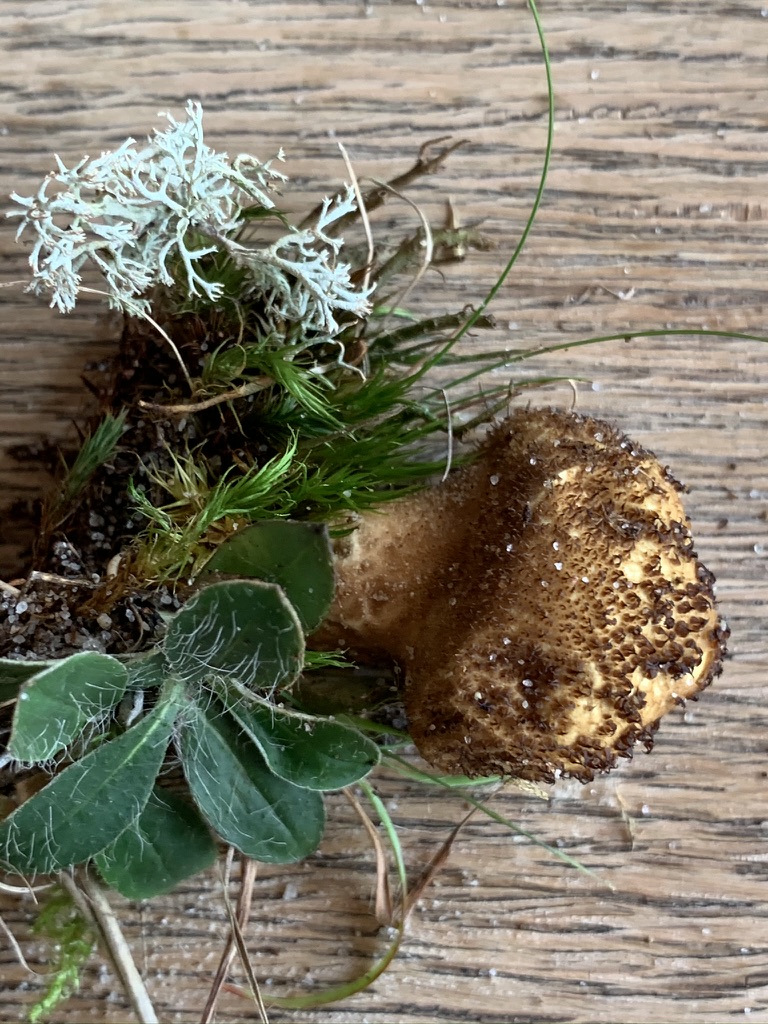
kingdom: Fungi
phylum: Basidiomycota
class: Agaricomycetes
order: Agaricales
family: Lycoperdaceae
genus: Lycoperdon
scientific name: Lycoperdon nigrescens
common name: sortagtig støvbold
